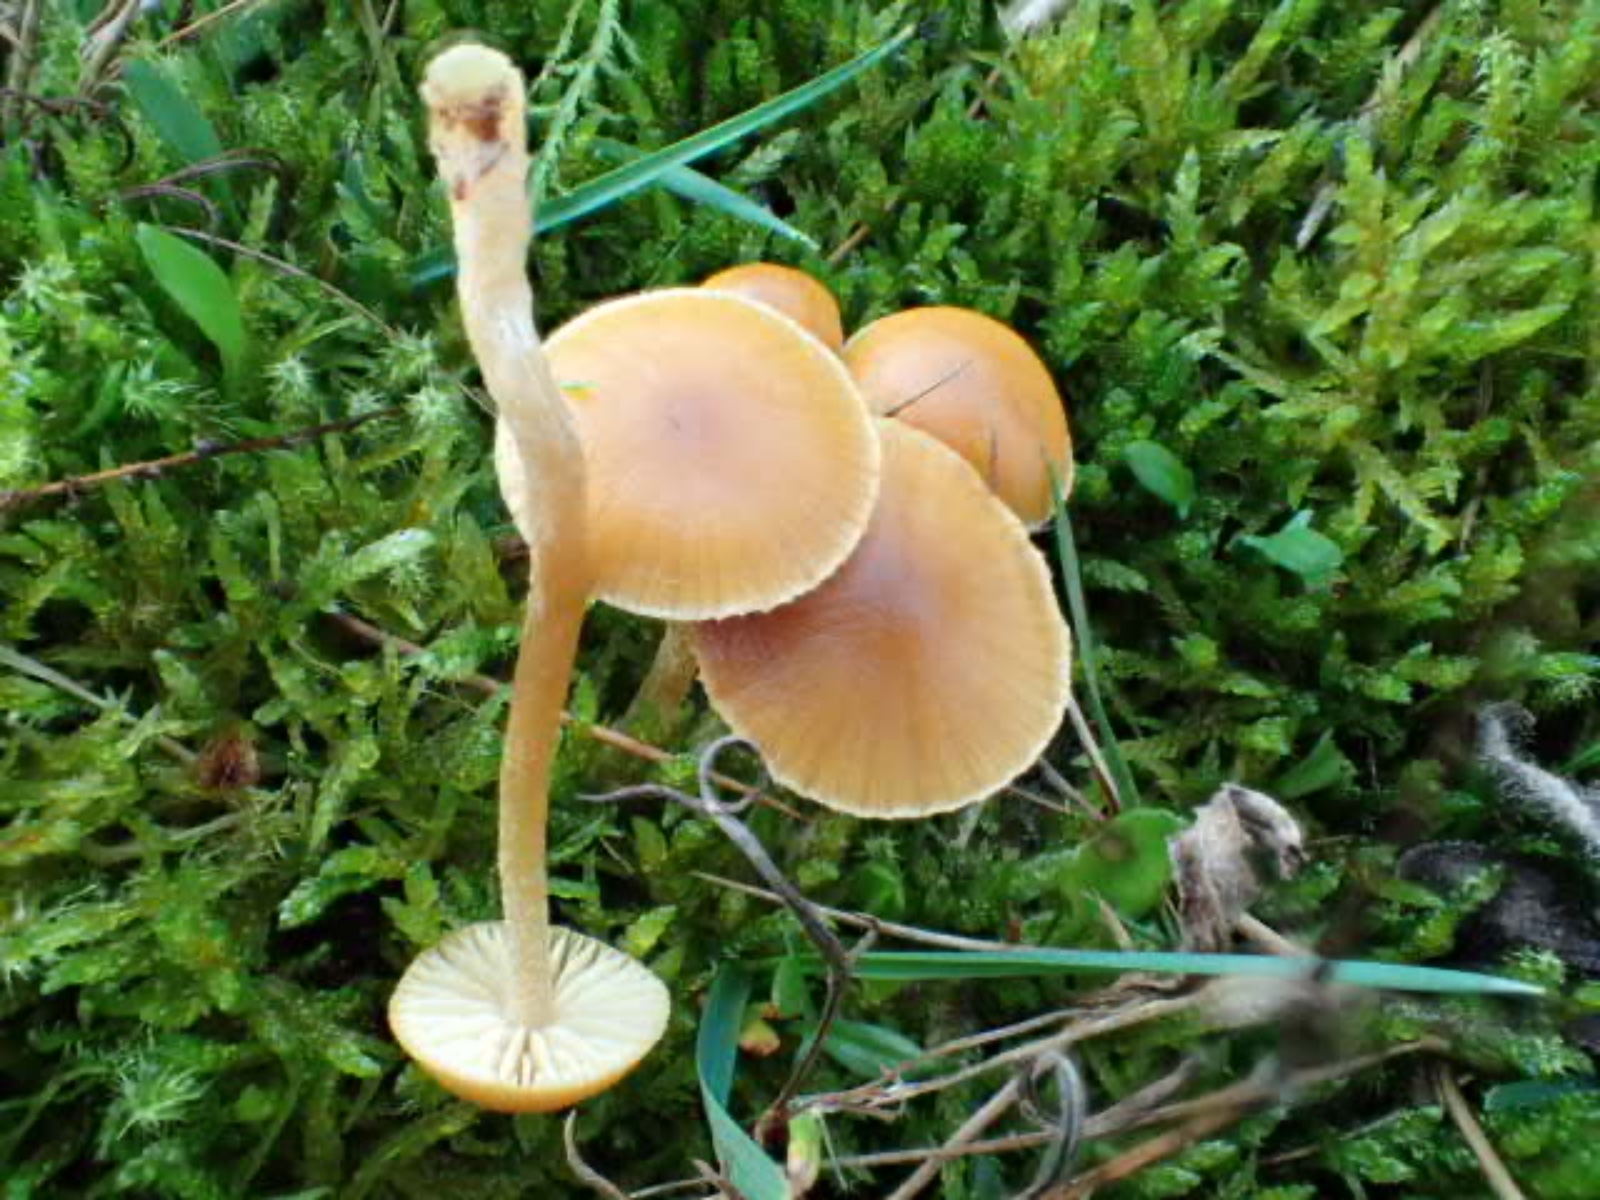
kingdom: Fungi
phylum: Basidiomycota
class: Agaricomycetes
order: Agaricales
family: Hymenogastraceae
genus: Galerina
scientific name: Galerina
